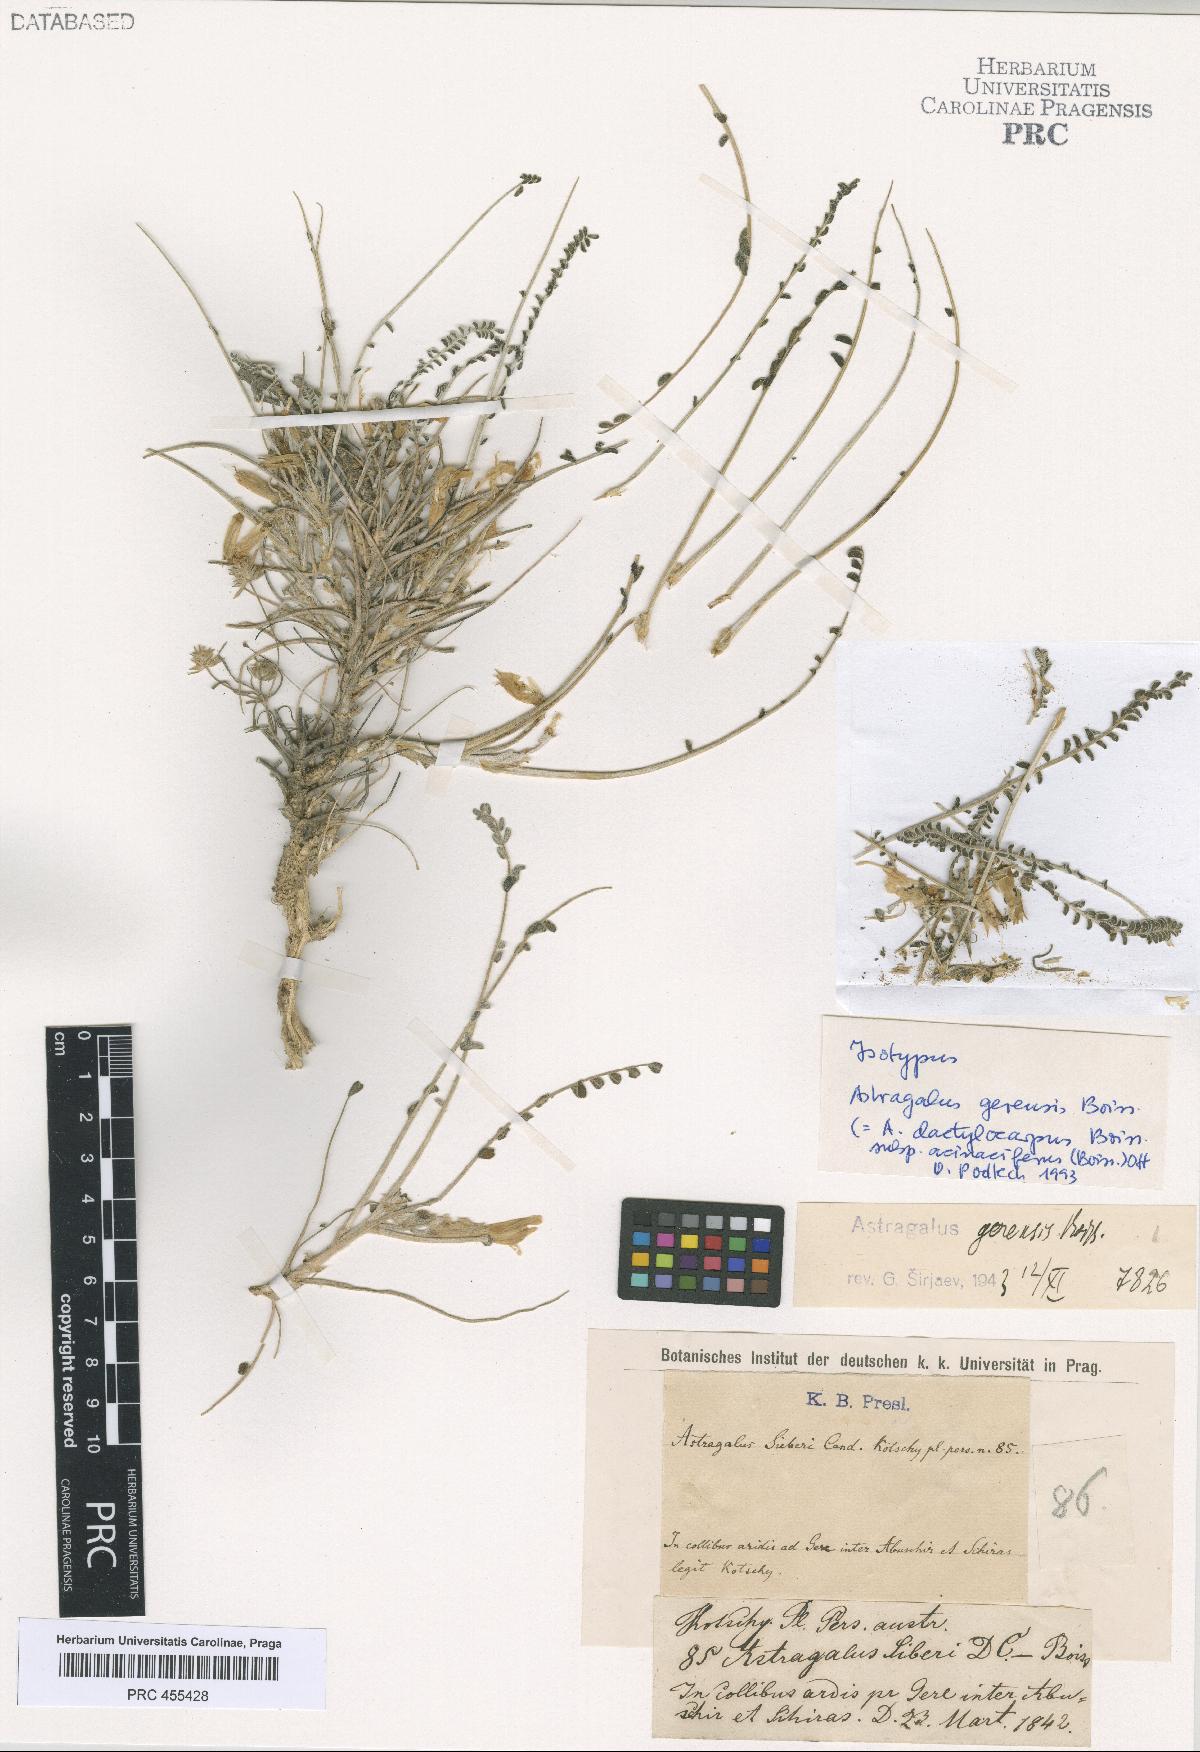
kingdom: Plantae
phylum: Tracheophyta
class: Magnoliopsida
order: Fabales
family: Fabaceae
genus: Astragalus
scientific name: Astragalus dactylocarpus
